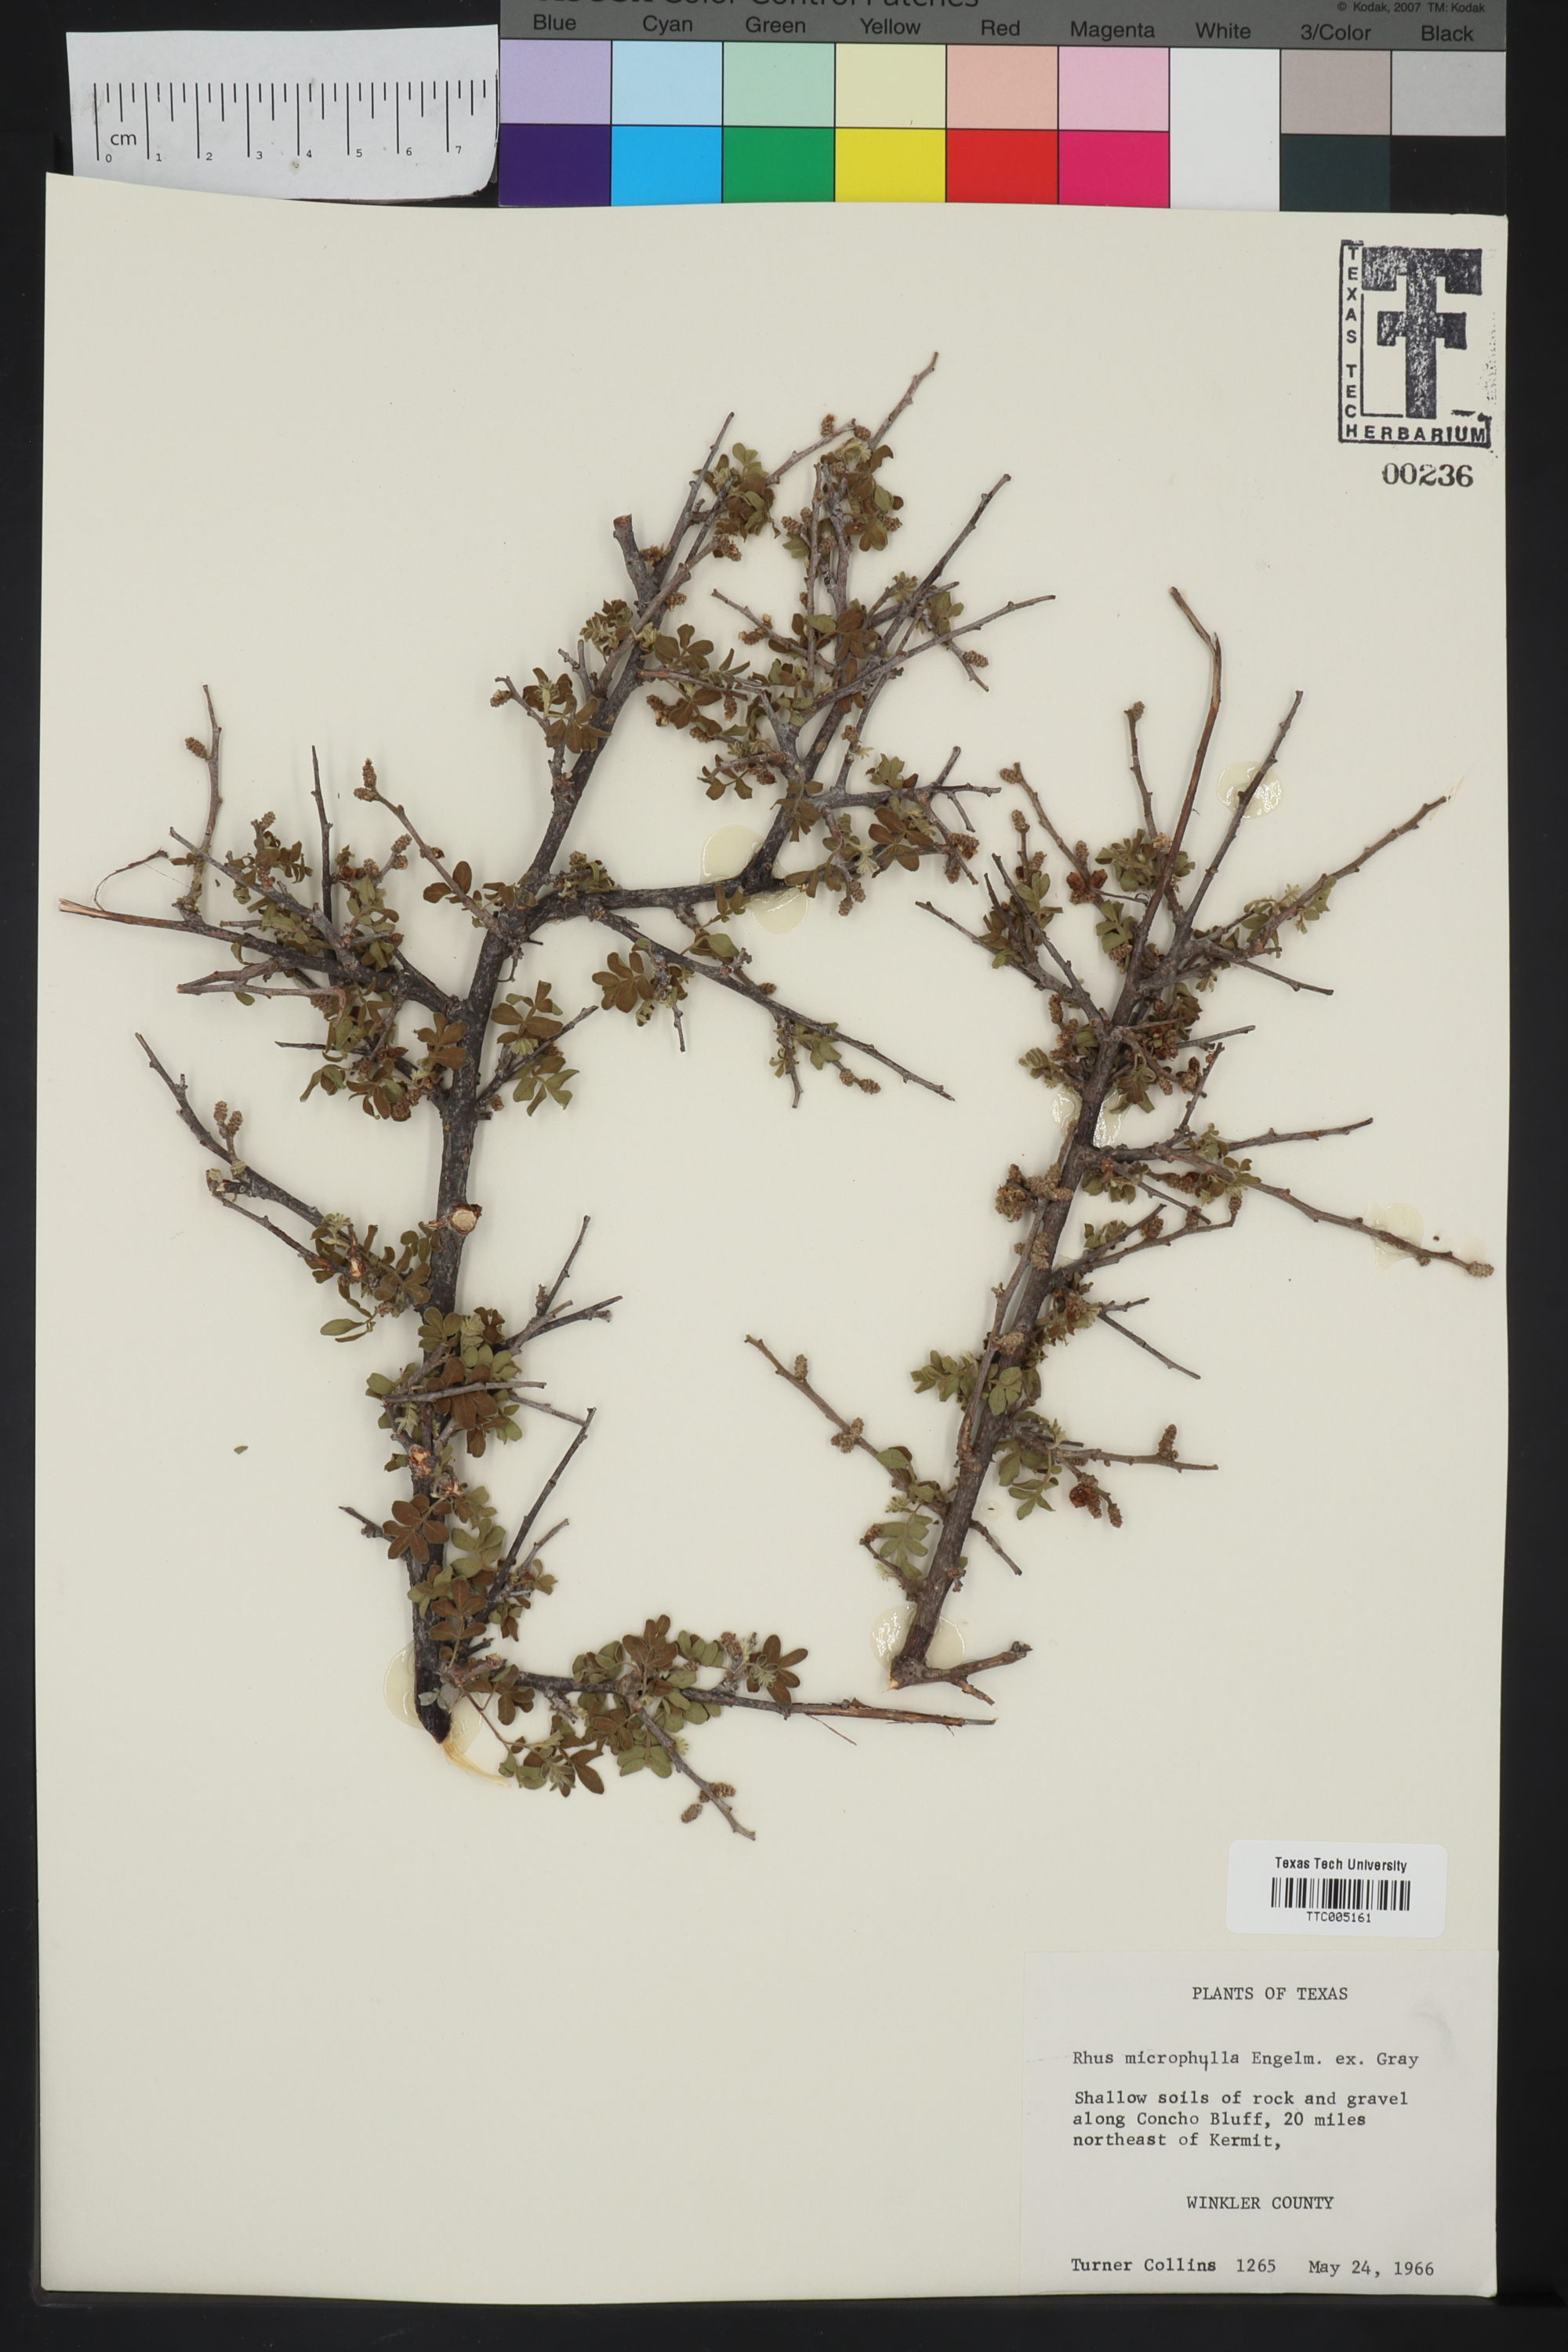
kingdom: Plantae
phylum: Tracheophyta
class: Magnoliopsida
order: Sapindales
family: Anacardiaceae
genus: Rhus
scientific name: Rhus microphylla
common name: Desert sumac
